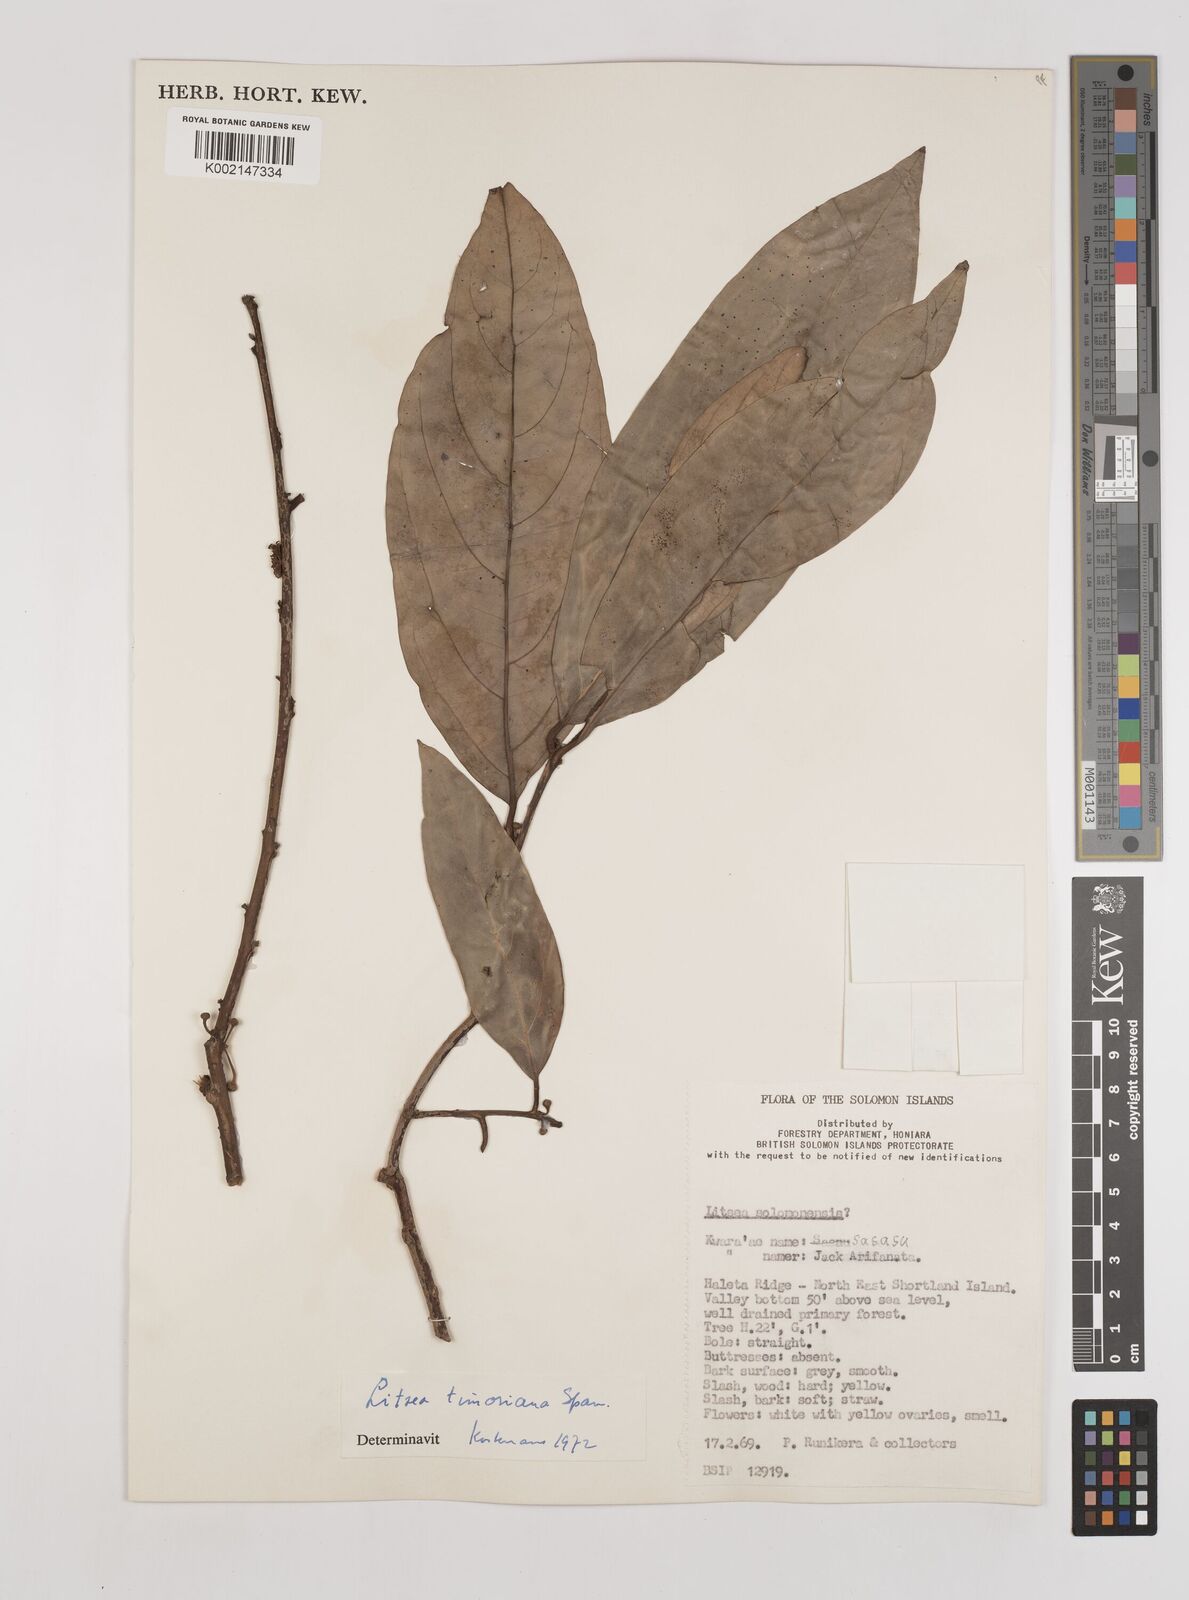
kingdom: Plantae
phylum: Tracheophyta
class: Magnoliopsida
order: Laurales
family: Lauraceae
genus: Litsea
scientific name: Litsea timoriana
